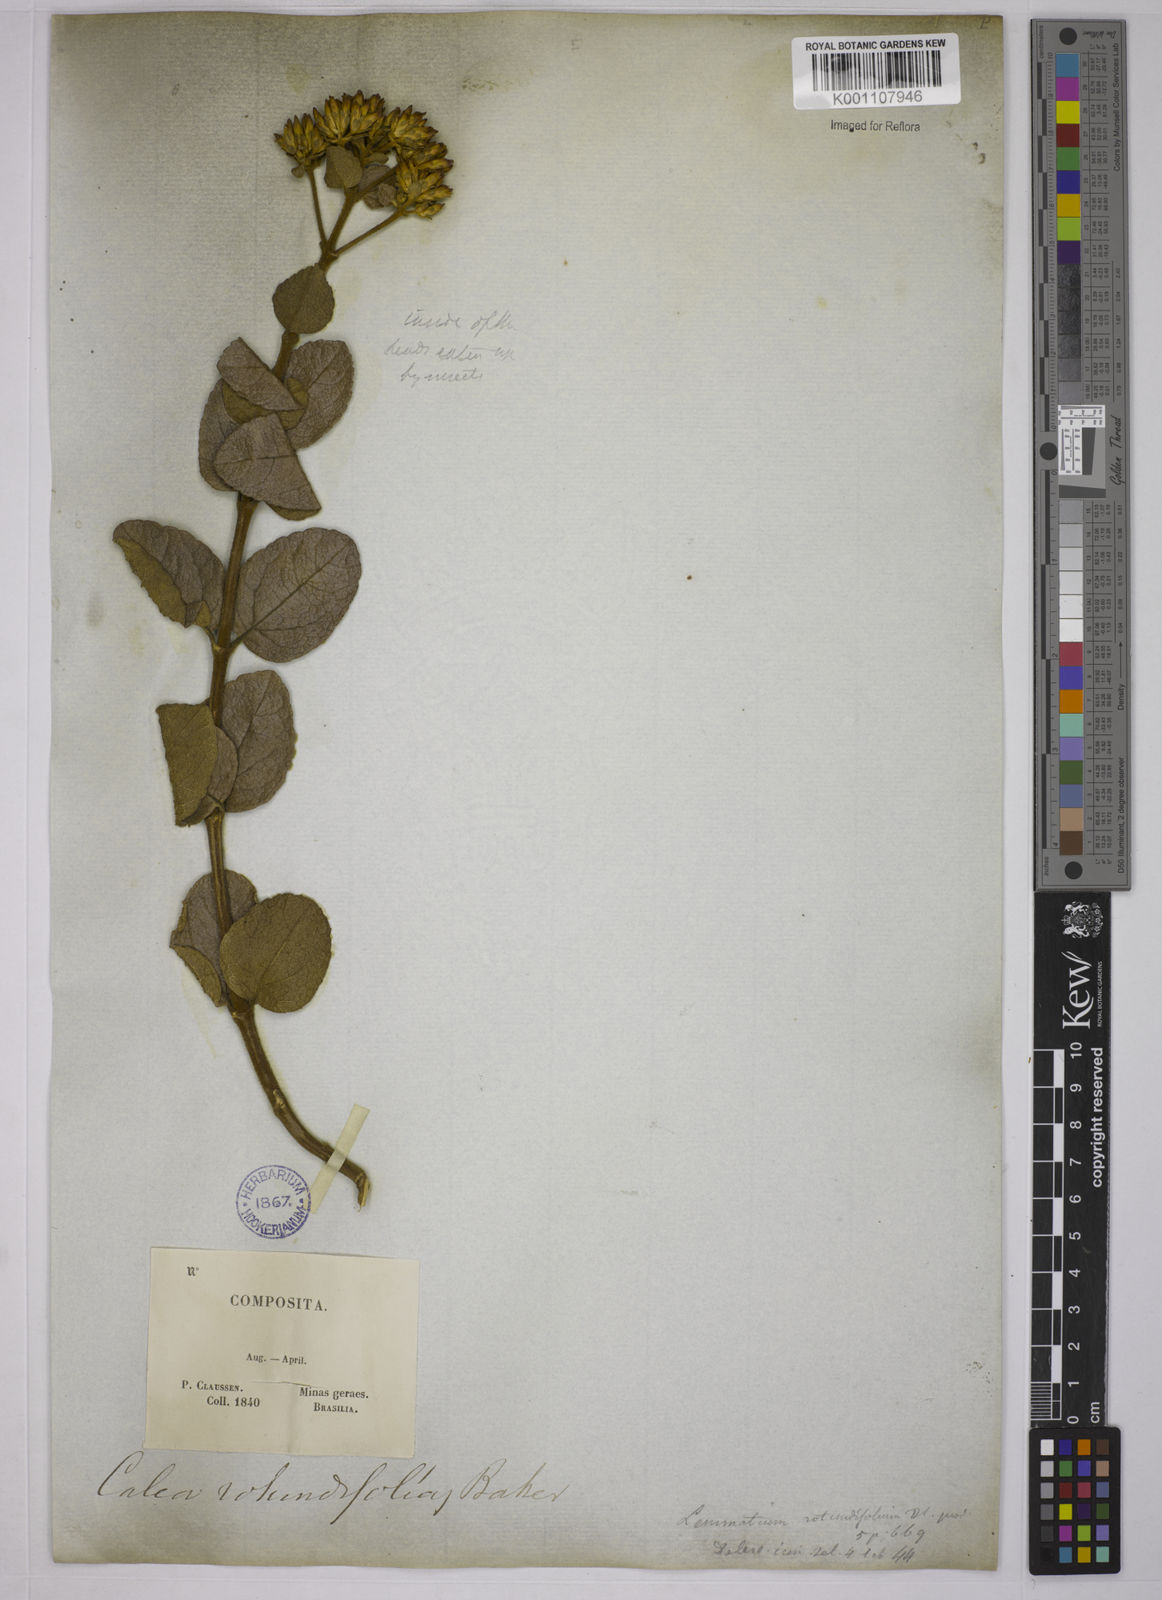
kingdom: Plantae
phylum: Tracheophyta
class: Magnoliopsida
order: Asterales
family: Asteraceae
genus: Calea
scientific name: Calea rotundifolia
